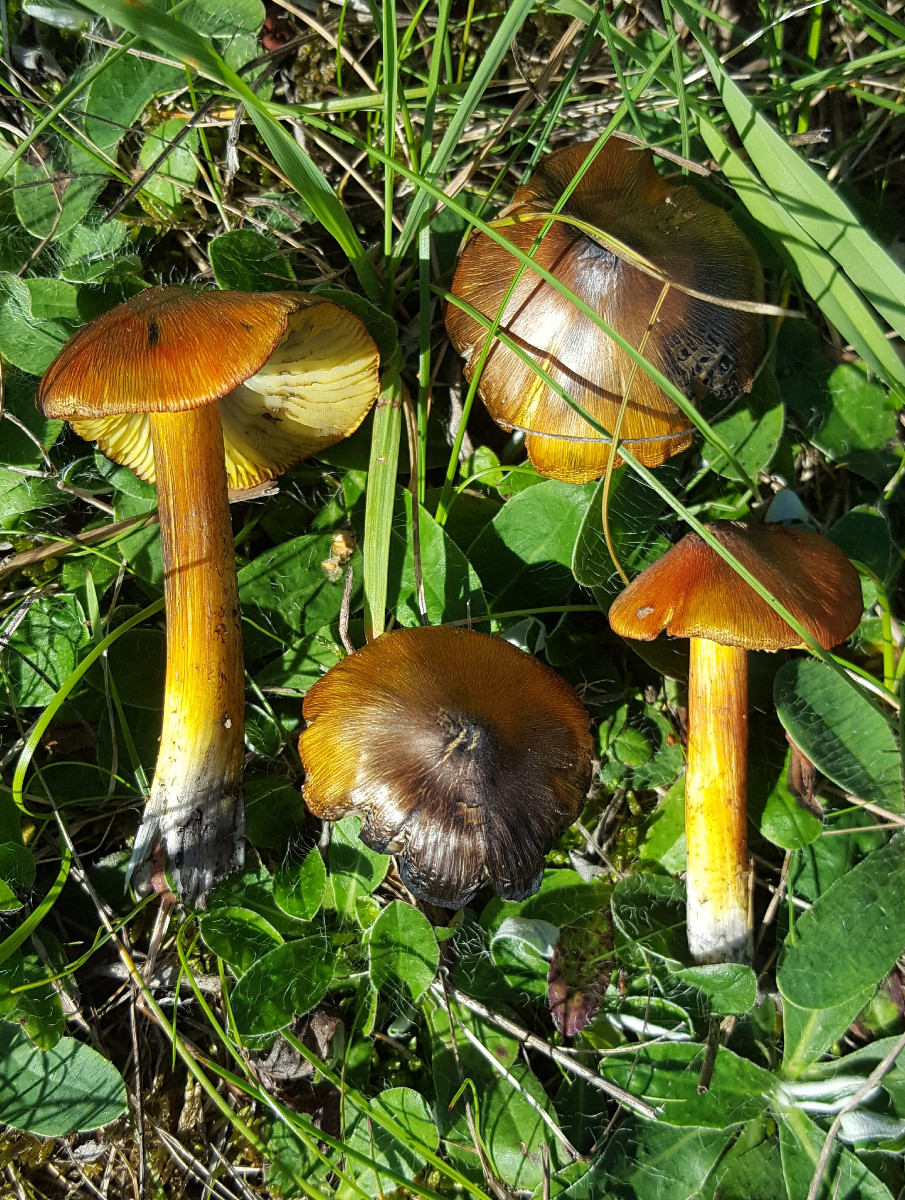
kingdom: Fungi
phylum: Basidiomycota
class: Agaricomycetes
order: Agaricales
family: Hygrophoraceae
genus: Hygrocybe
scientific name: Hygrocybe conica
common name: kegle-vokshat
